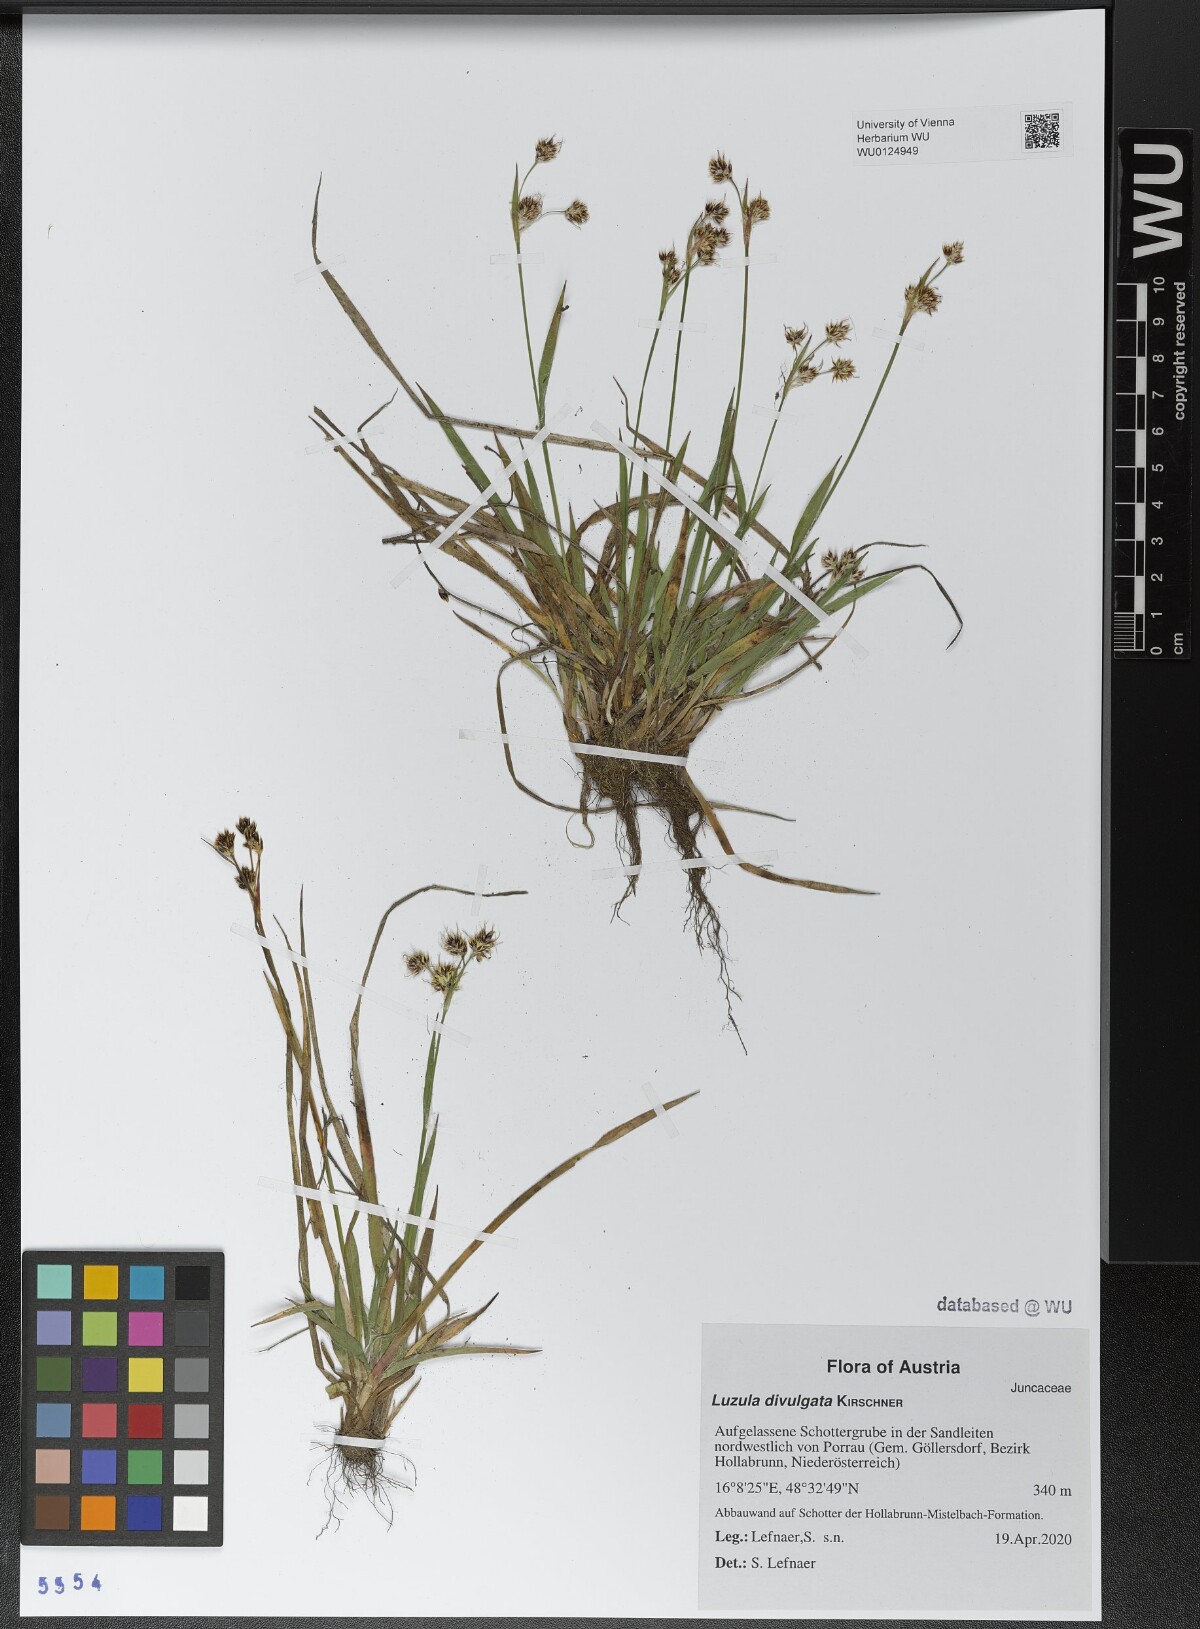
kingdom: Plantae
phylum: Tracheophyta
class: Liliopsida
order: Poales
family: Juncaceae
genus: Luzula
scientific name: Luzula divulgata
